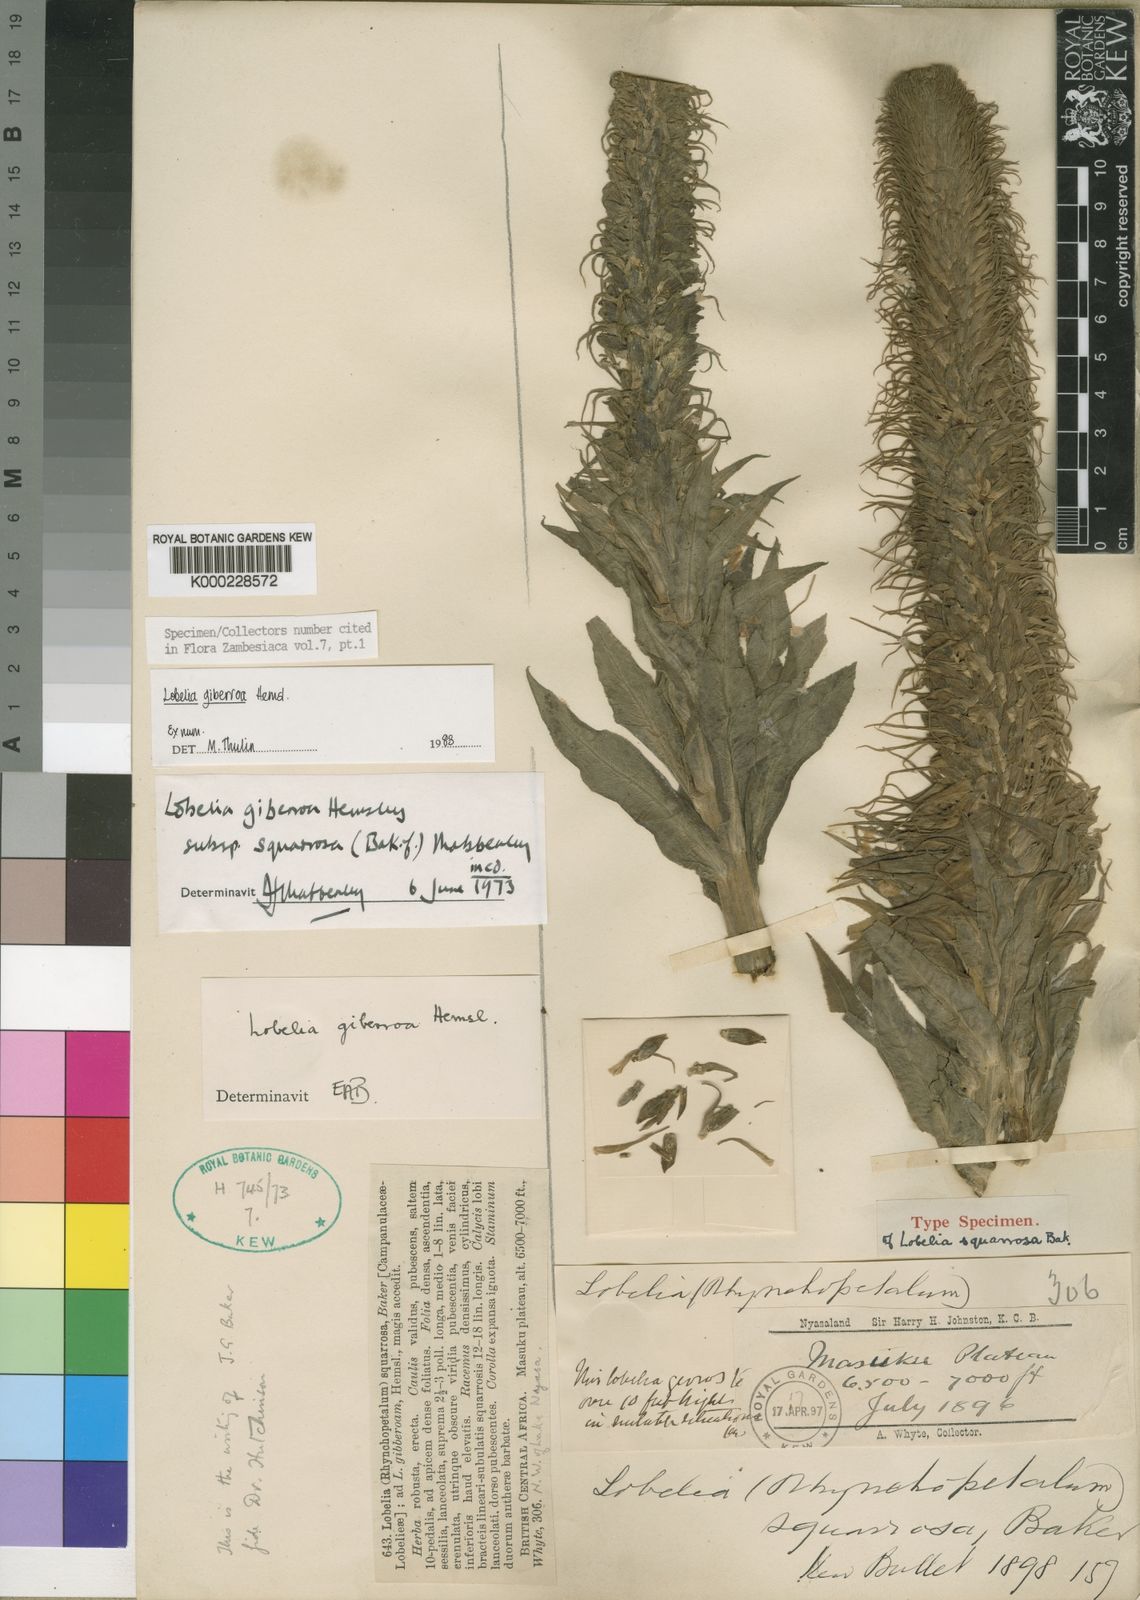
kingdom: Plantae
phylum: Tracheophyta
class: Magnoliopsida
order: Asterales
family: Campanulaceae
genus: Lobelia
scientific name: Lobelia giberroa
